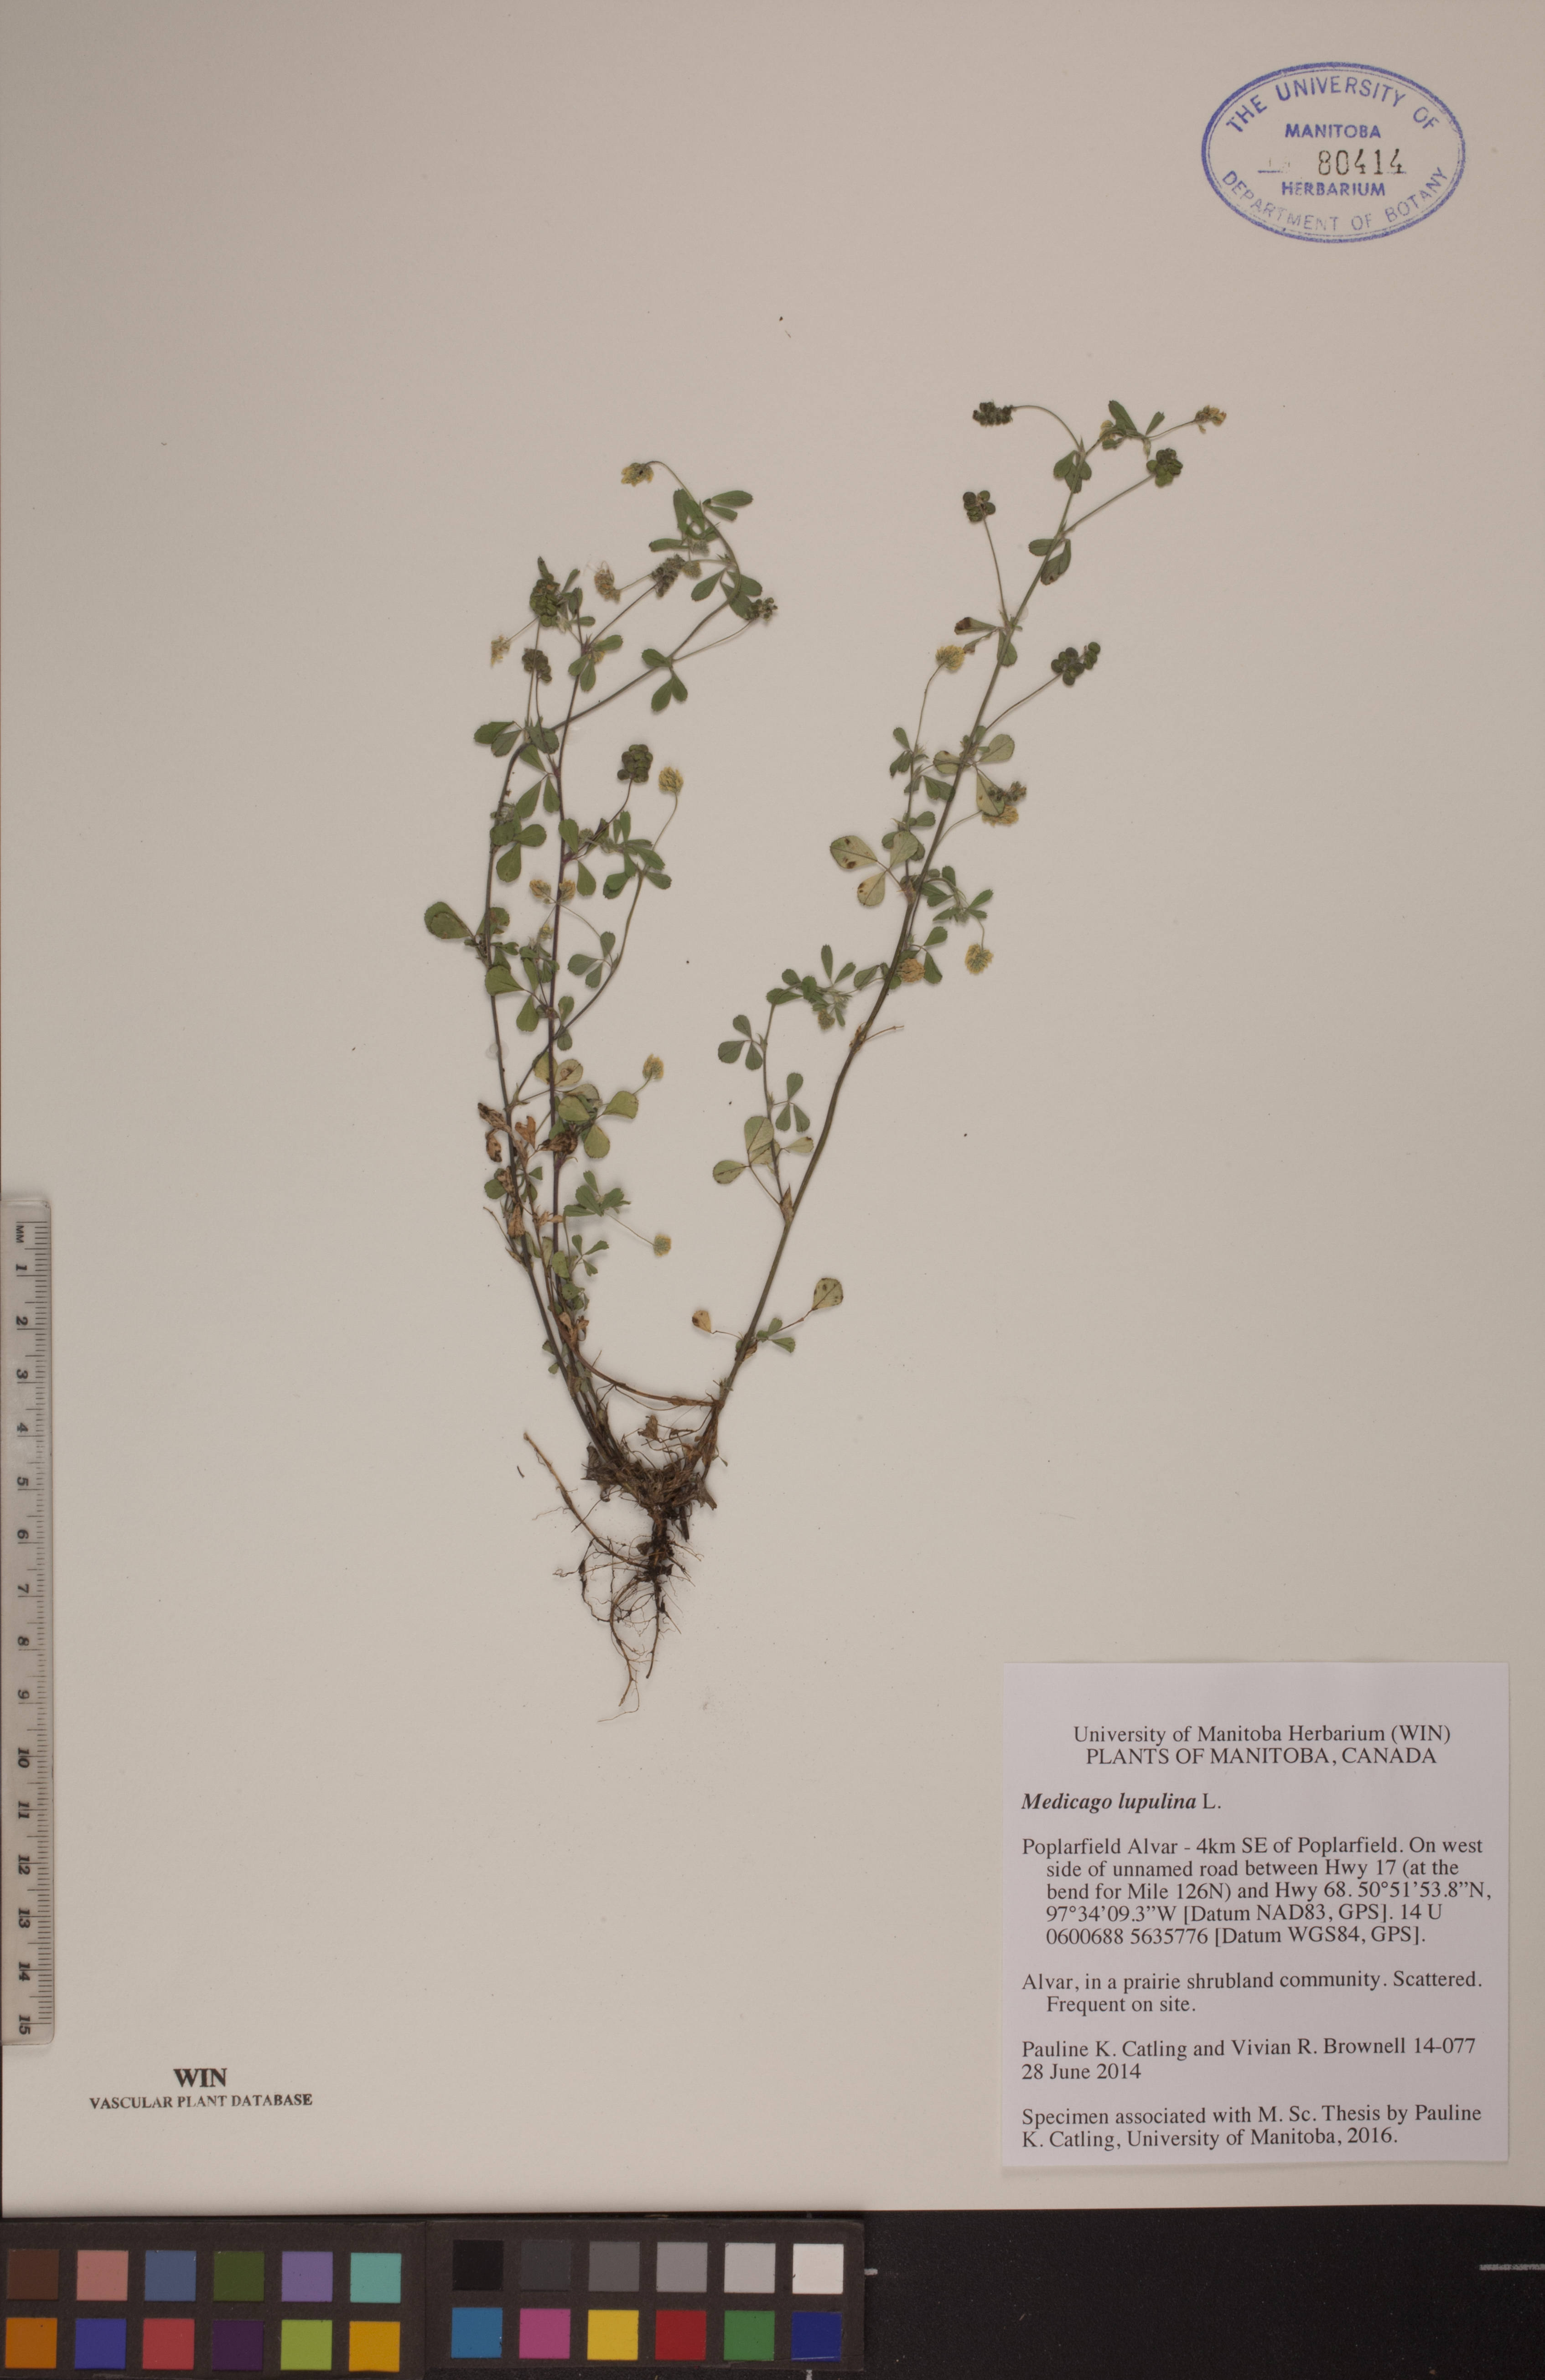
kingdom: Plantae
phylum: Tracheophyta
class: Magnoliopsida
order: Fabales
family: Fabaceae
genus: Medicago
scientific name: Medicago lupulina
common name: Black medick
